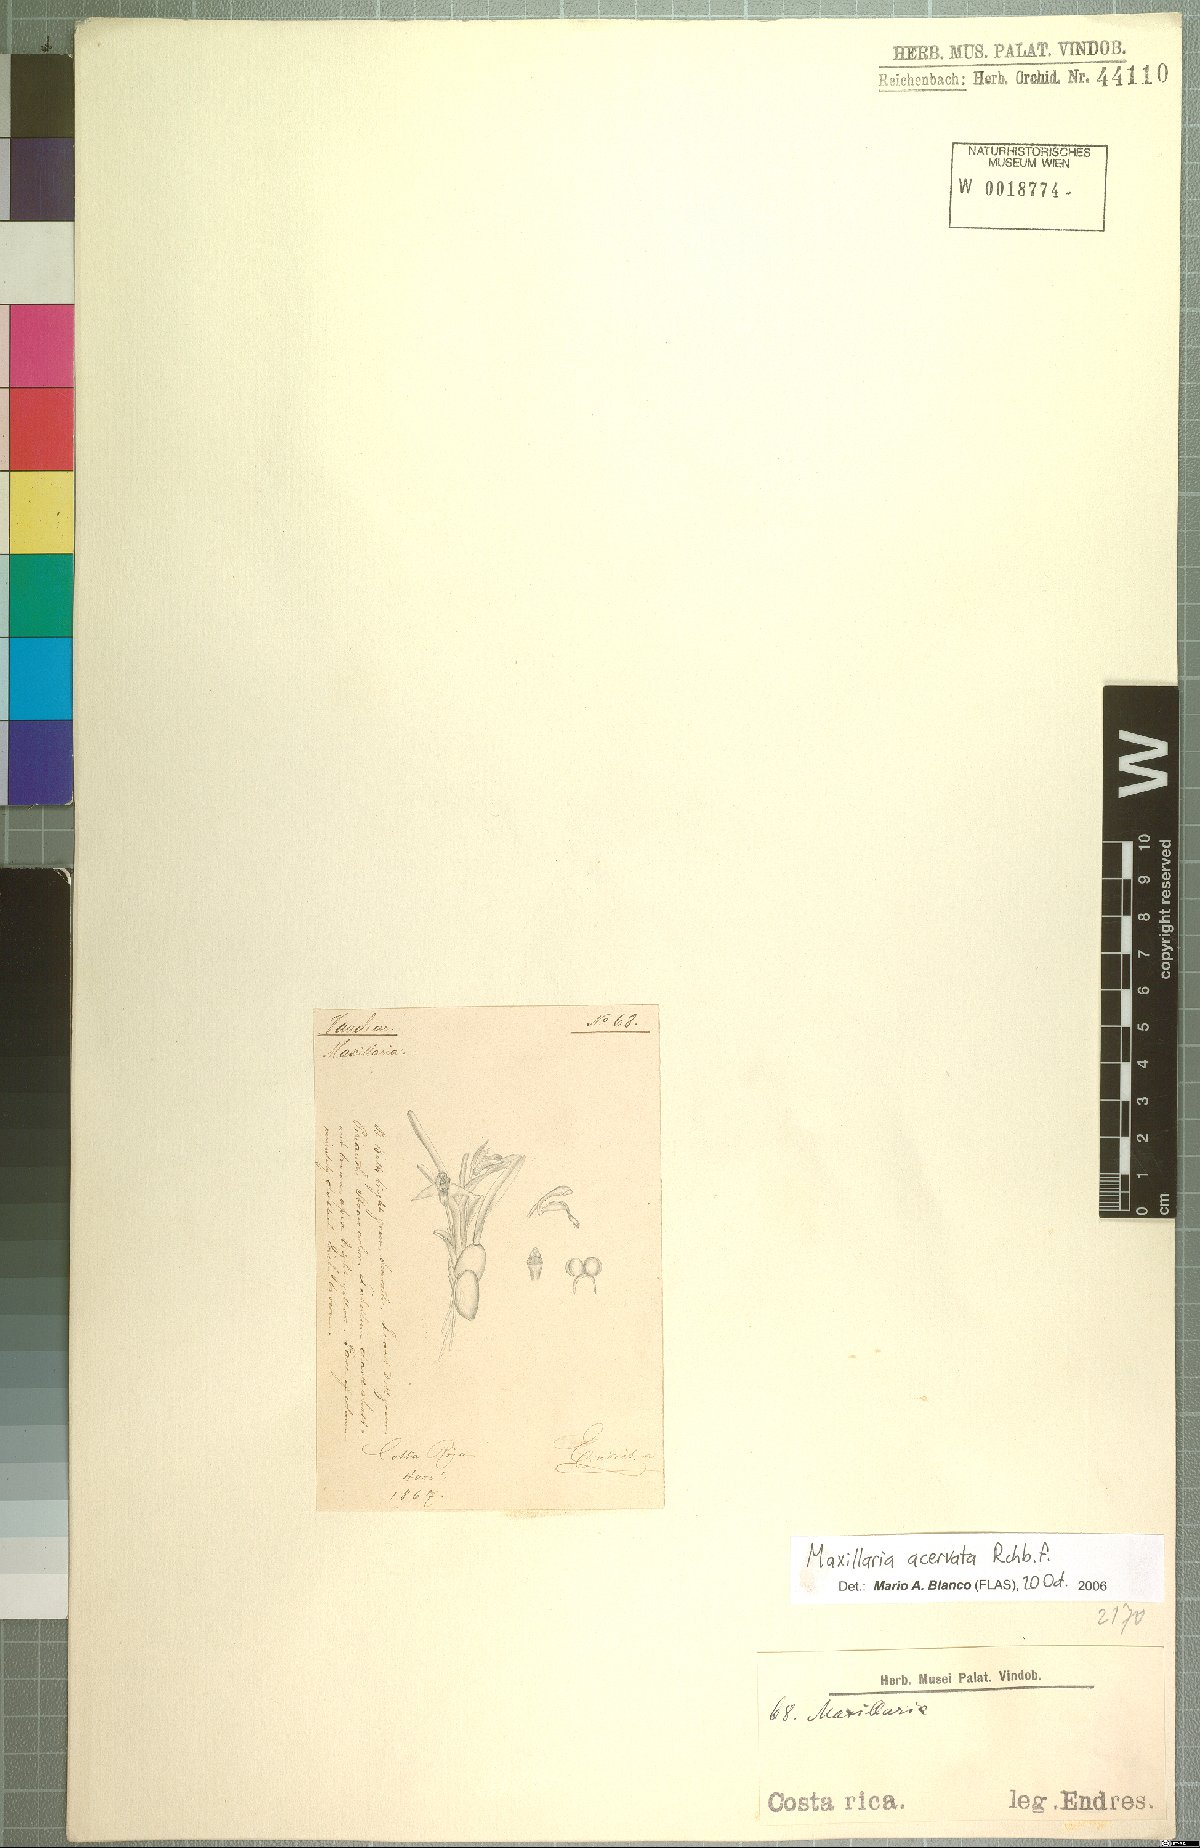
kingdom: Plantae
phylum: Tracheophyta
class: Liliopsida
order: Asparagales
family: Orchidaceae
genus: Maxillaria
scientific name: Maxillaria acervata
